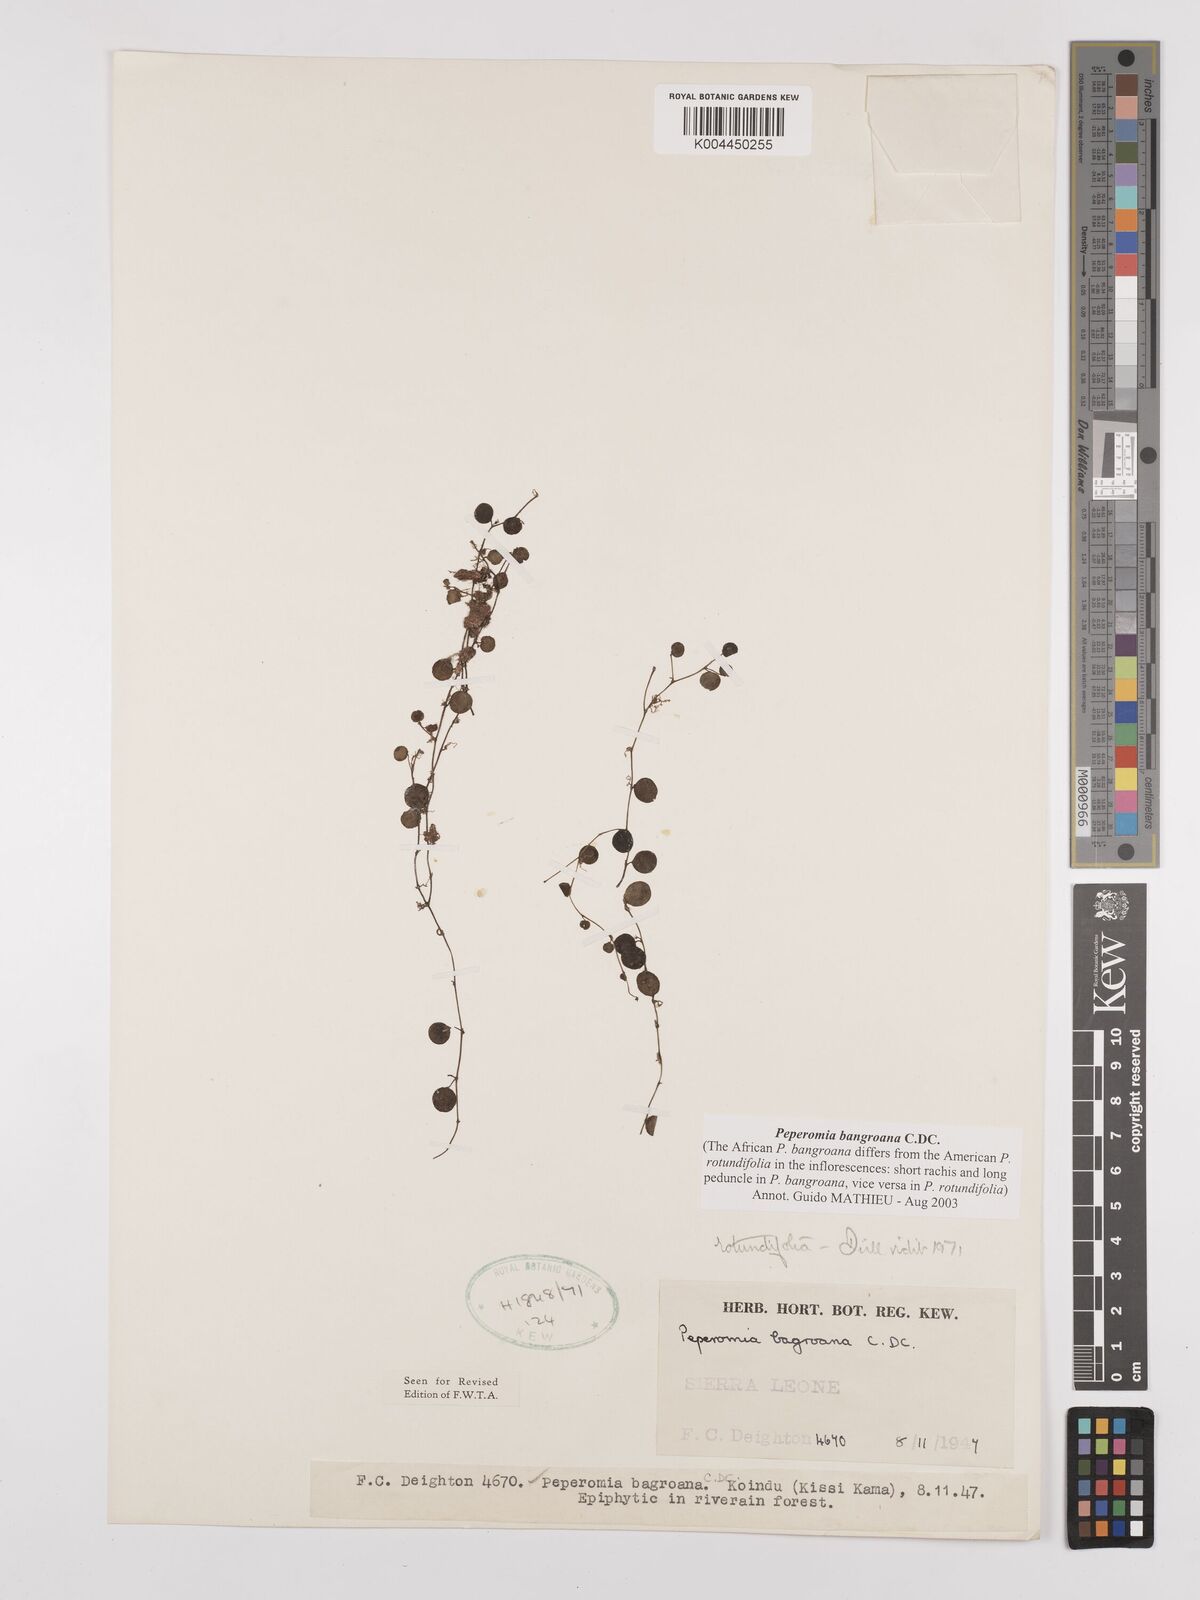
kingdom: Plantae
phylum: Tracheophyta
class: Magnoliopsida
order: Piperales
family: Piperaceae
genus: Peperomia
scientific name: Peperomia bangroana
